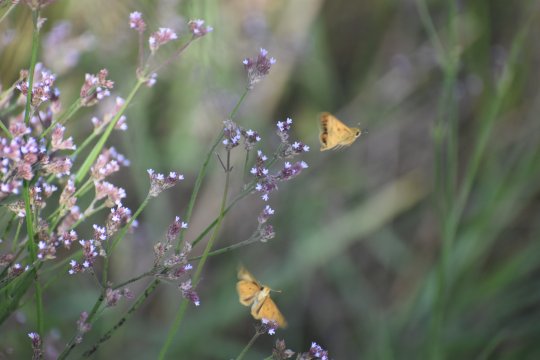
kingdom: Animalia
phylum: Arthropoda
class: Insecta
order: Lepidoptera
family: Hesperiidae
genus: Hylephila
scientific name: Hylephila phyleus
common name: Fiery Skipper
